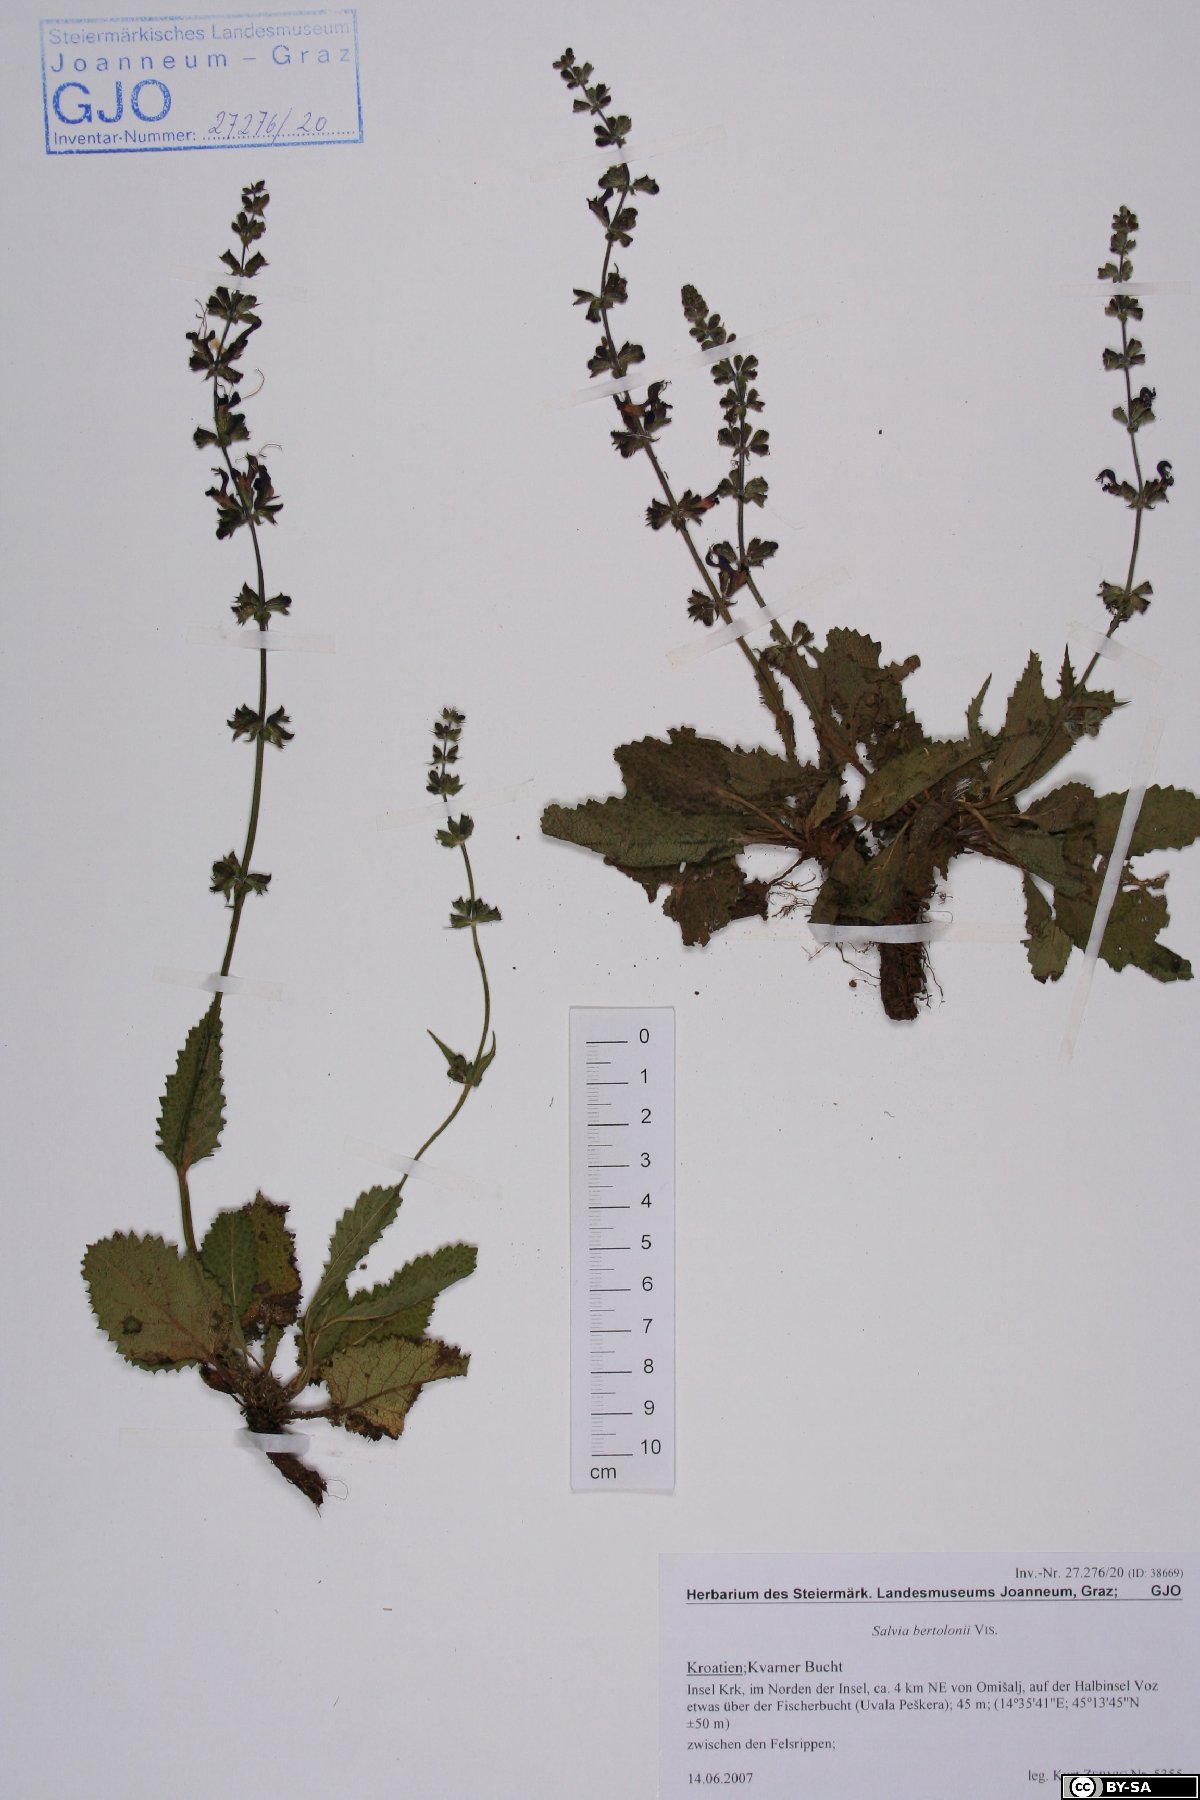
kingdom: Plantae
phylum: Tracheophyta
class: Magnoliopsida
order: Lamiales
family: Lamiaceae
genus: Salvia
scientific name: Salvia pratensis
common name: Meadow sage
